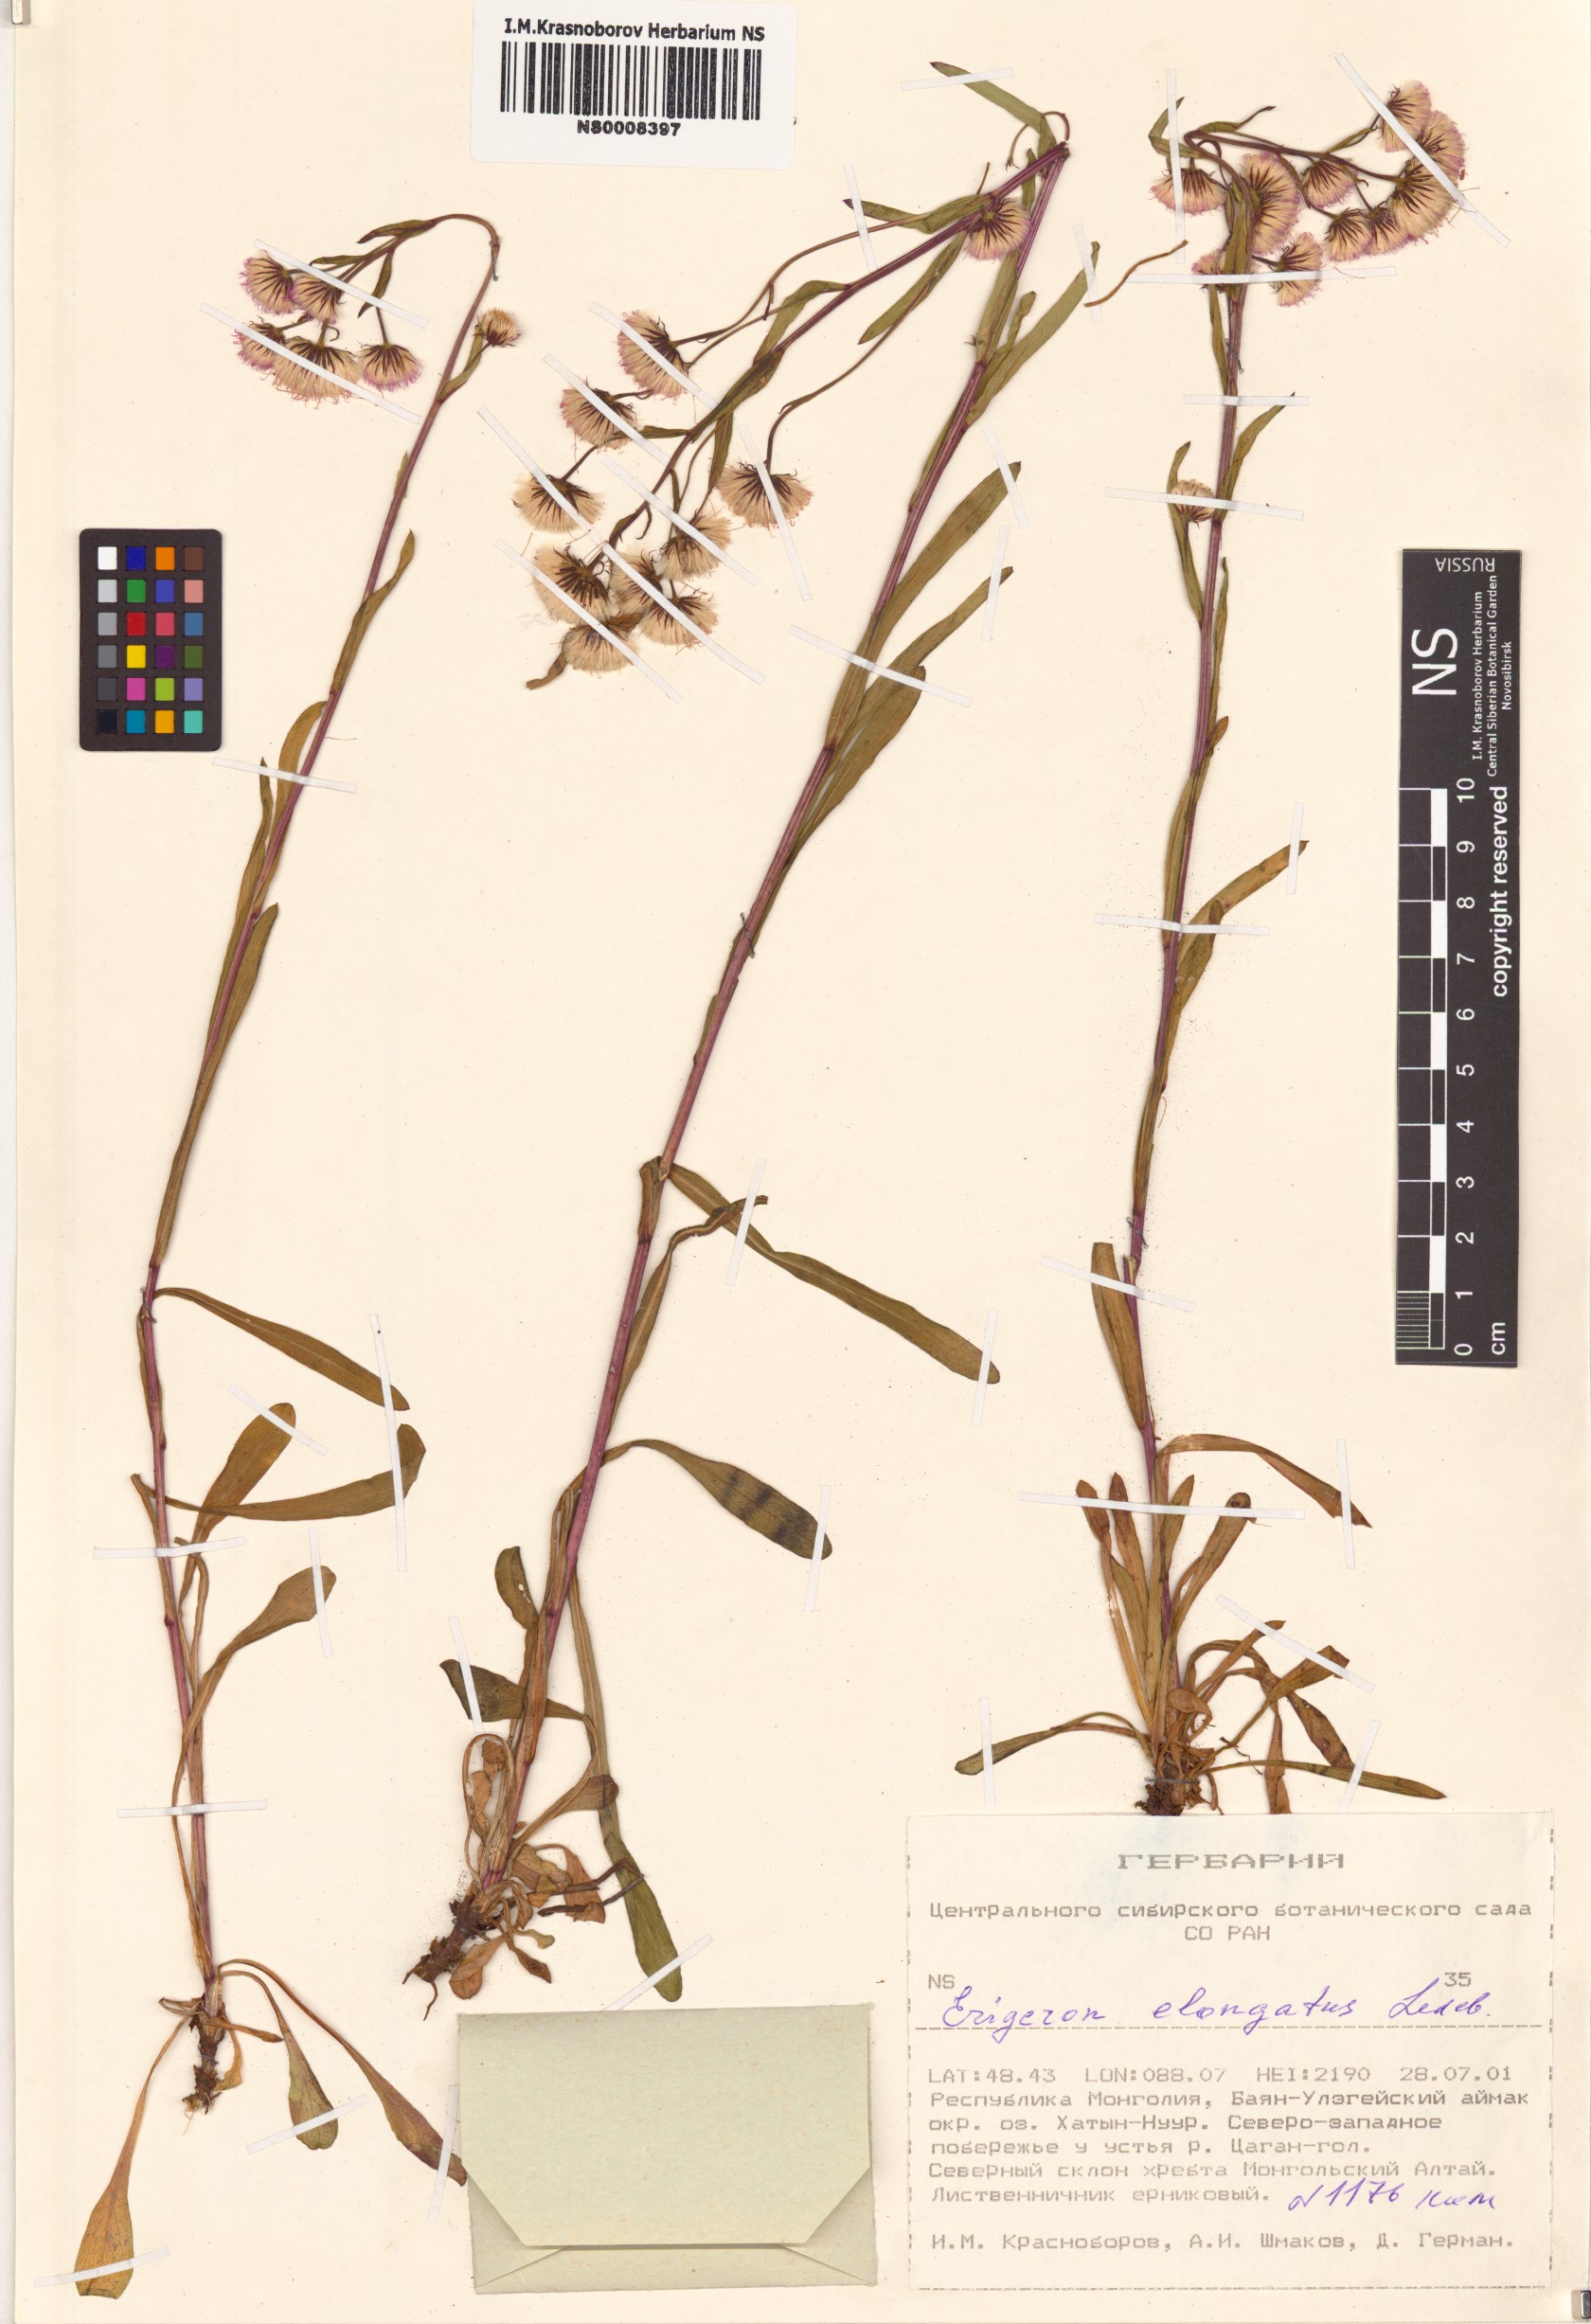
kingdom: Plantae
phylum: Tracheophyta
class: Magnoliopsida
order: Asterales
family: Asteraceae
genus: Erigeron
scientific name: Erigeron politus
